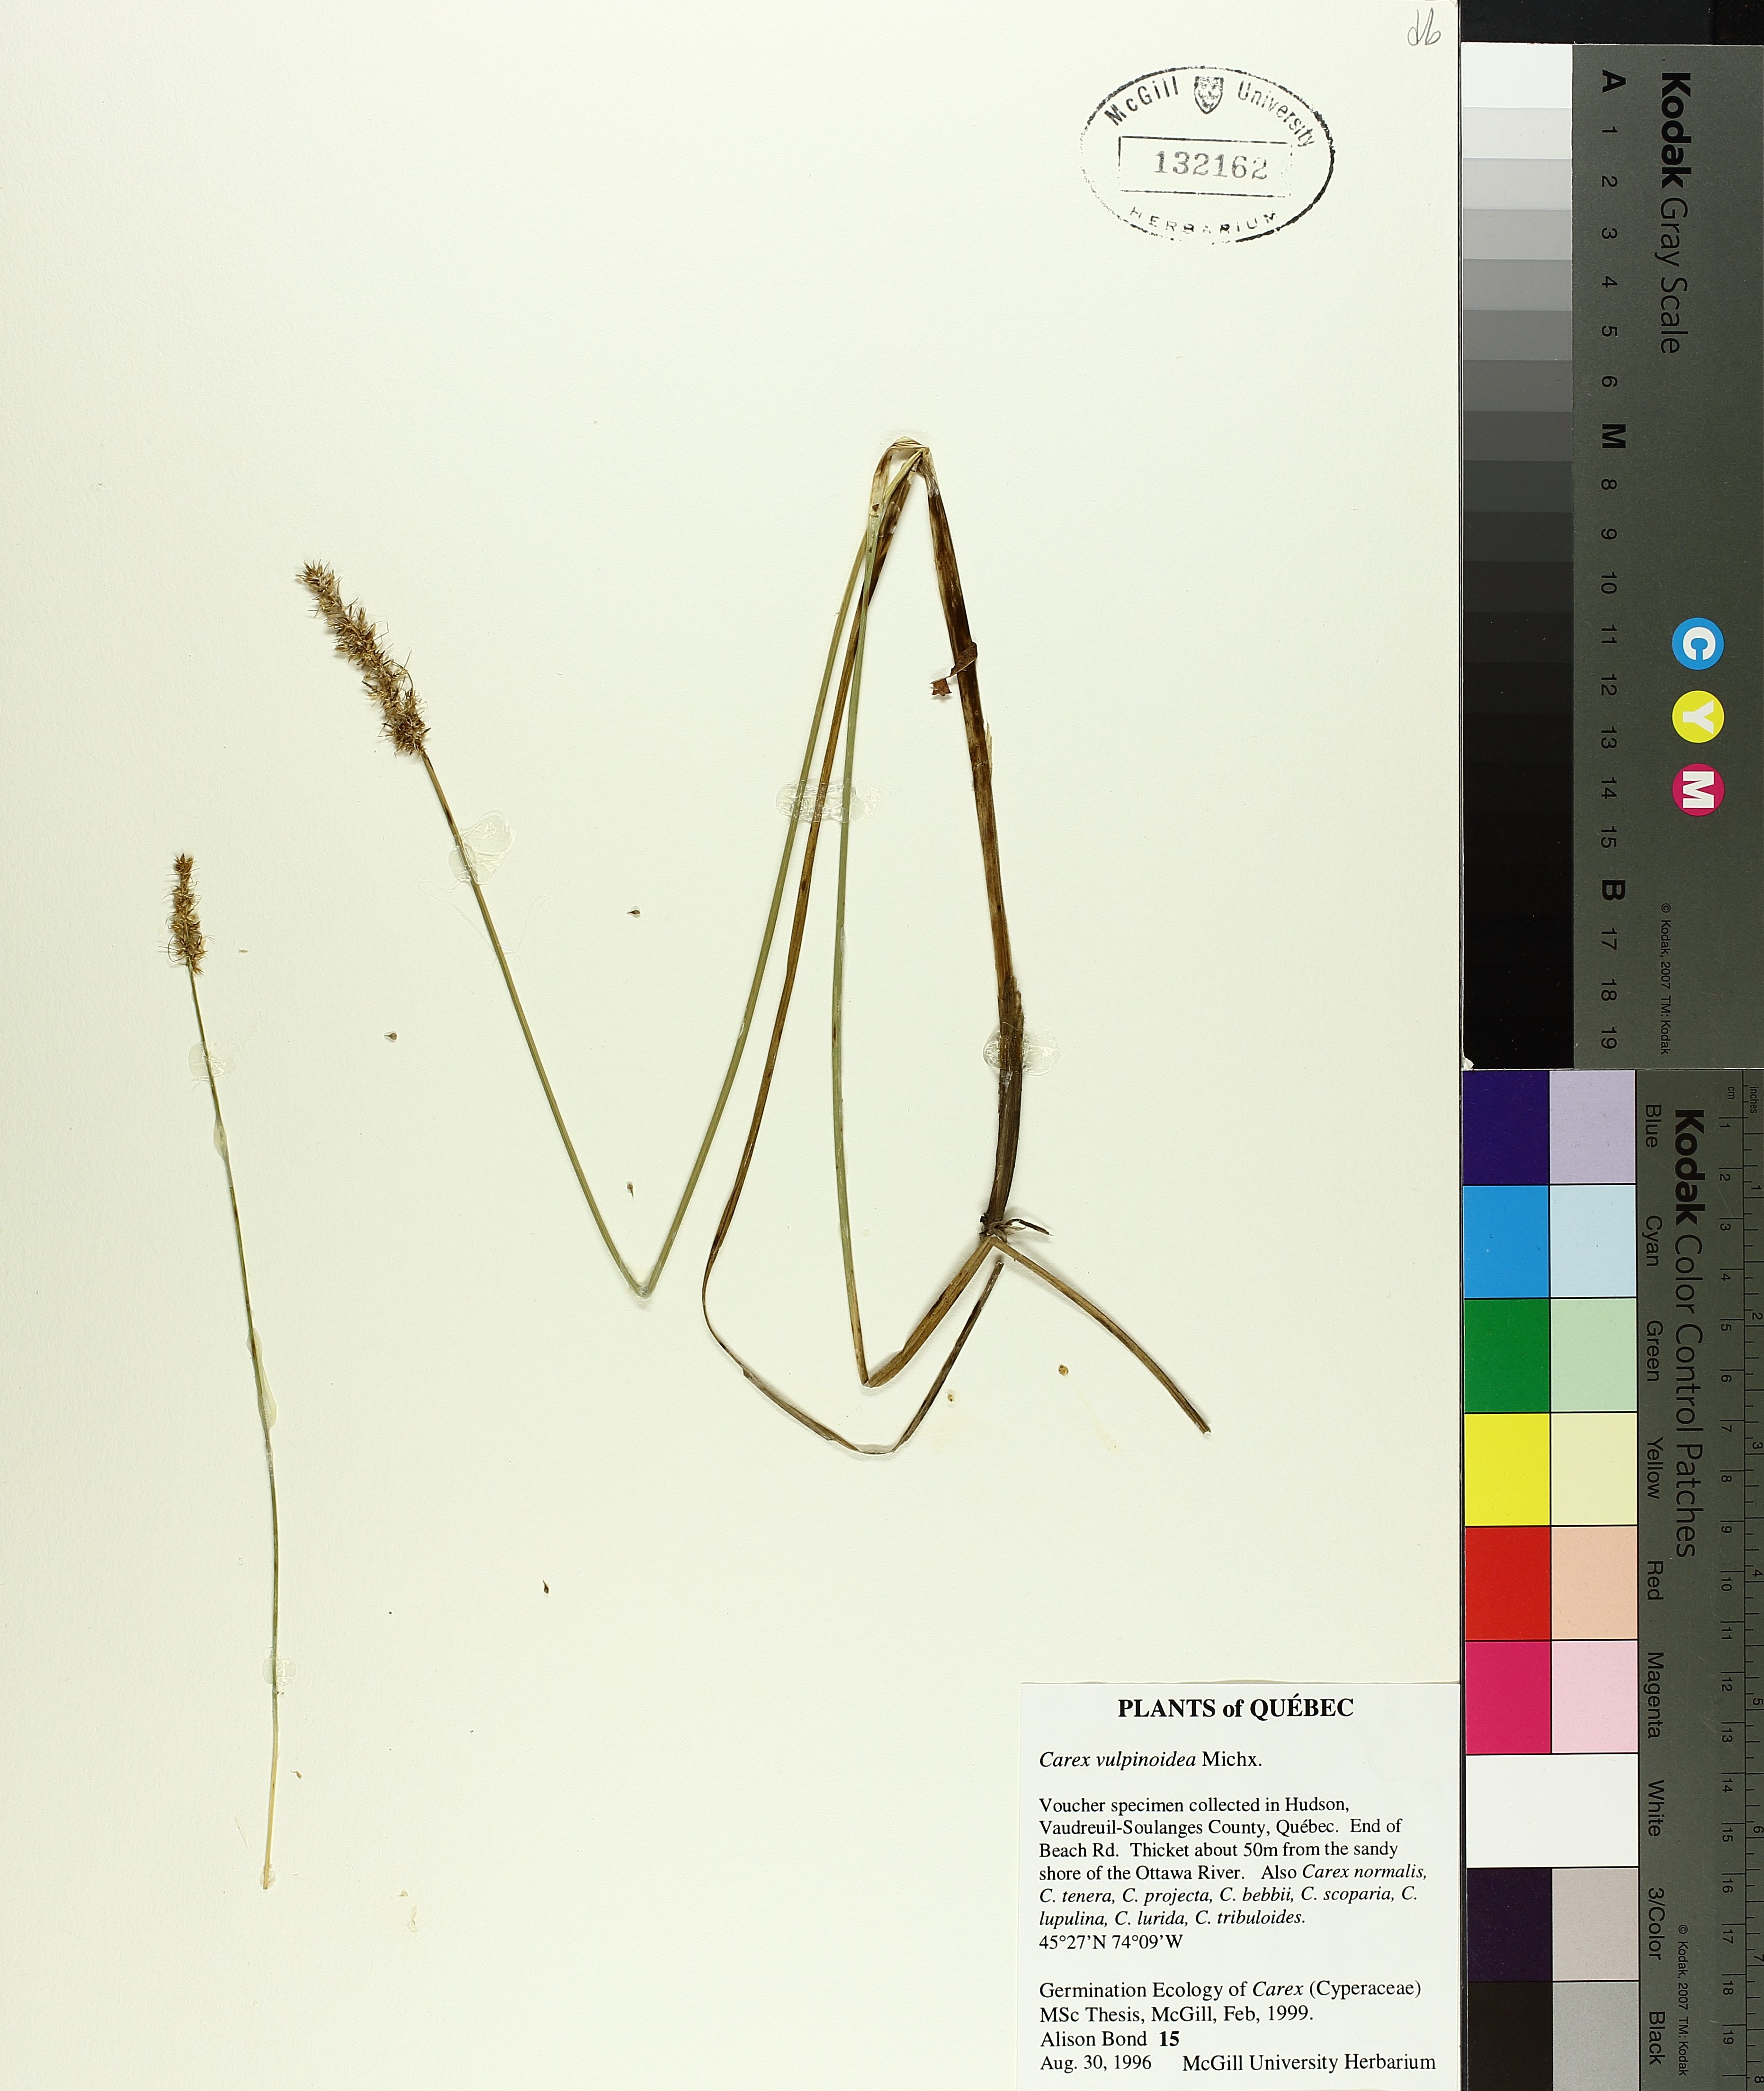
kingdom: Plantae
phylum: Tracheophyta
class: Liliopsida
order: Poales
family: Cyperaceae
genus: Carex
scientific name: Carex vulpinoidea
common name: American fox-sedge
